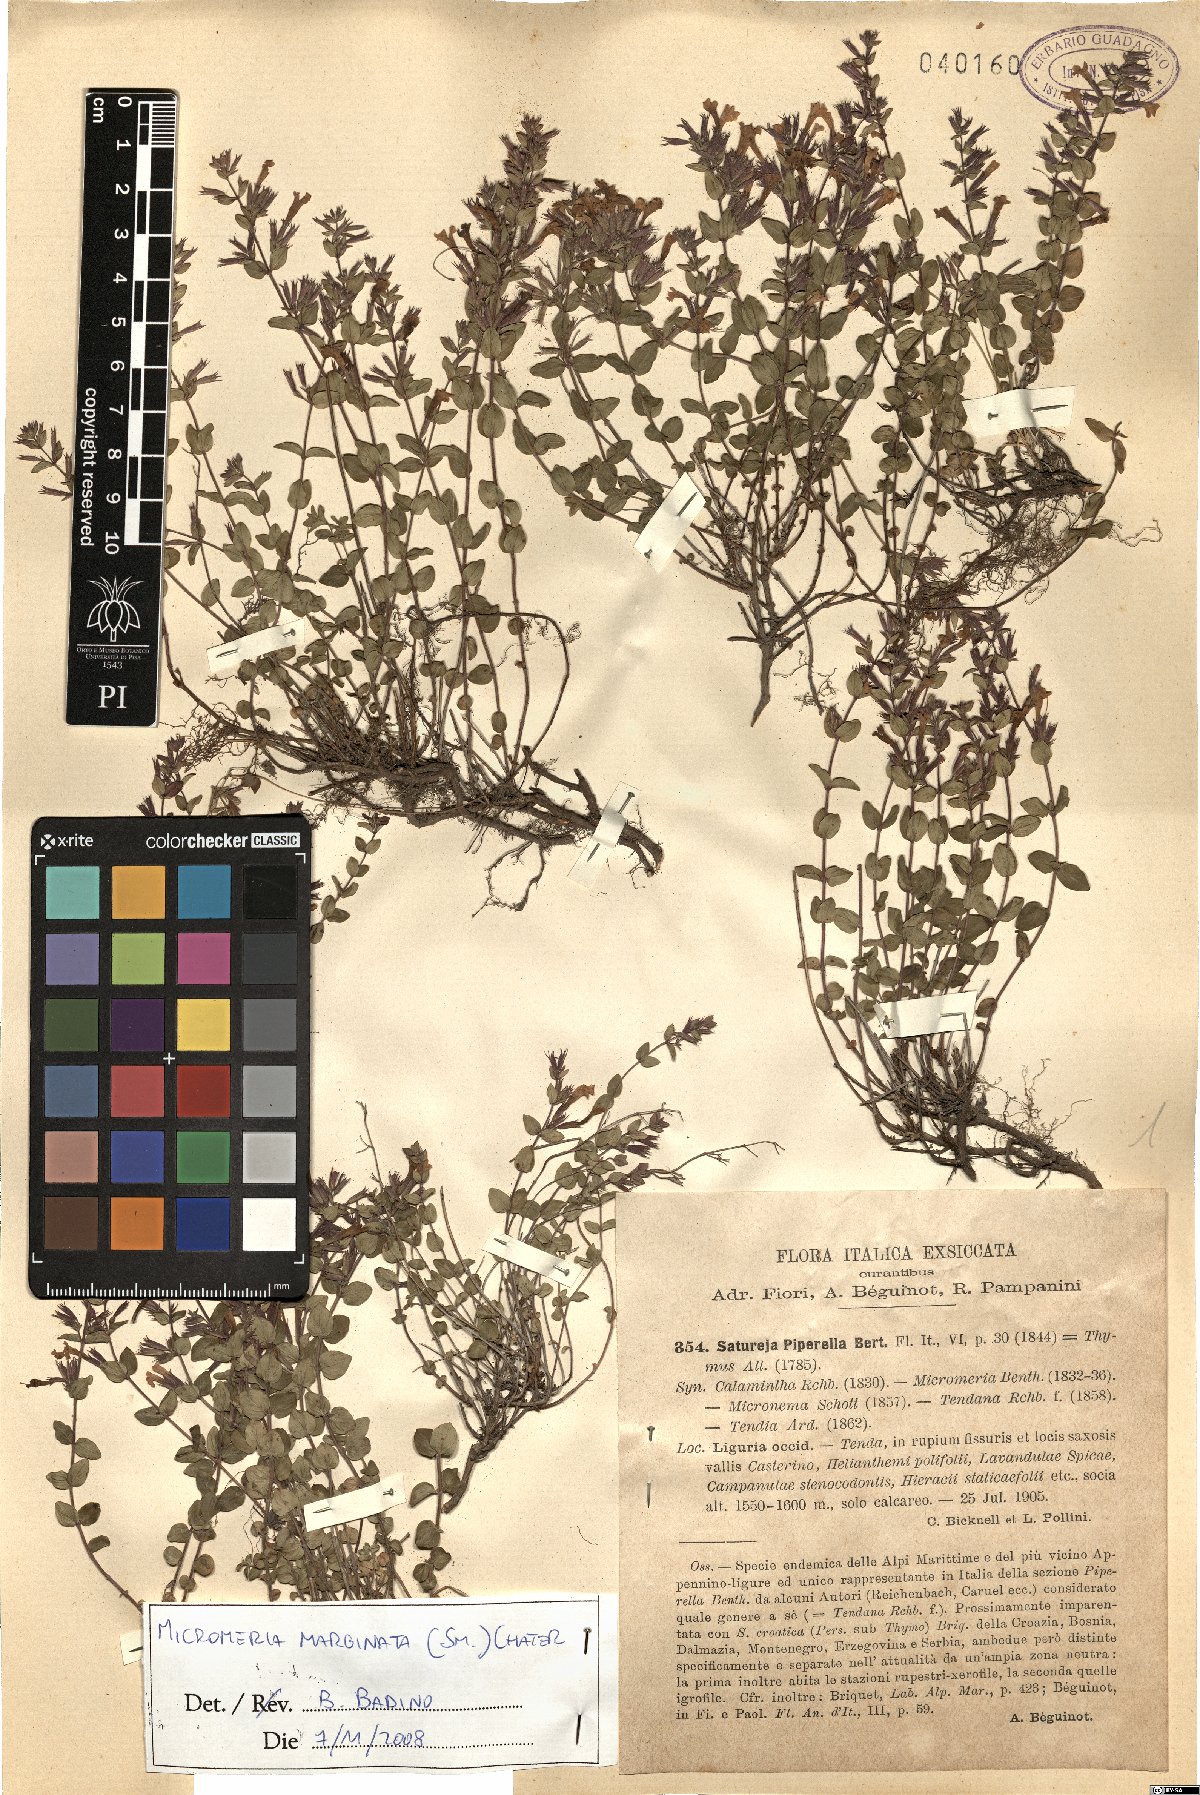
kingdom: Plantae
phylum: Tracheophyta
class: Magnoliopsida
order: Lamiales
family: Lamiaceae
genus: Micromeria
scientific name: Micromeria marginata
